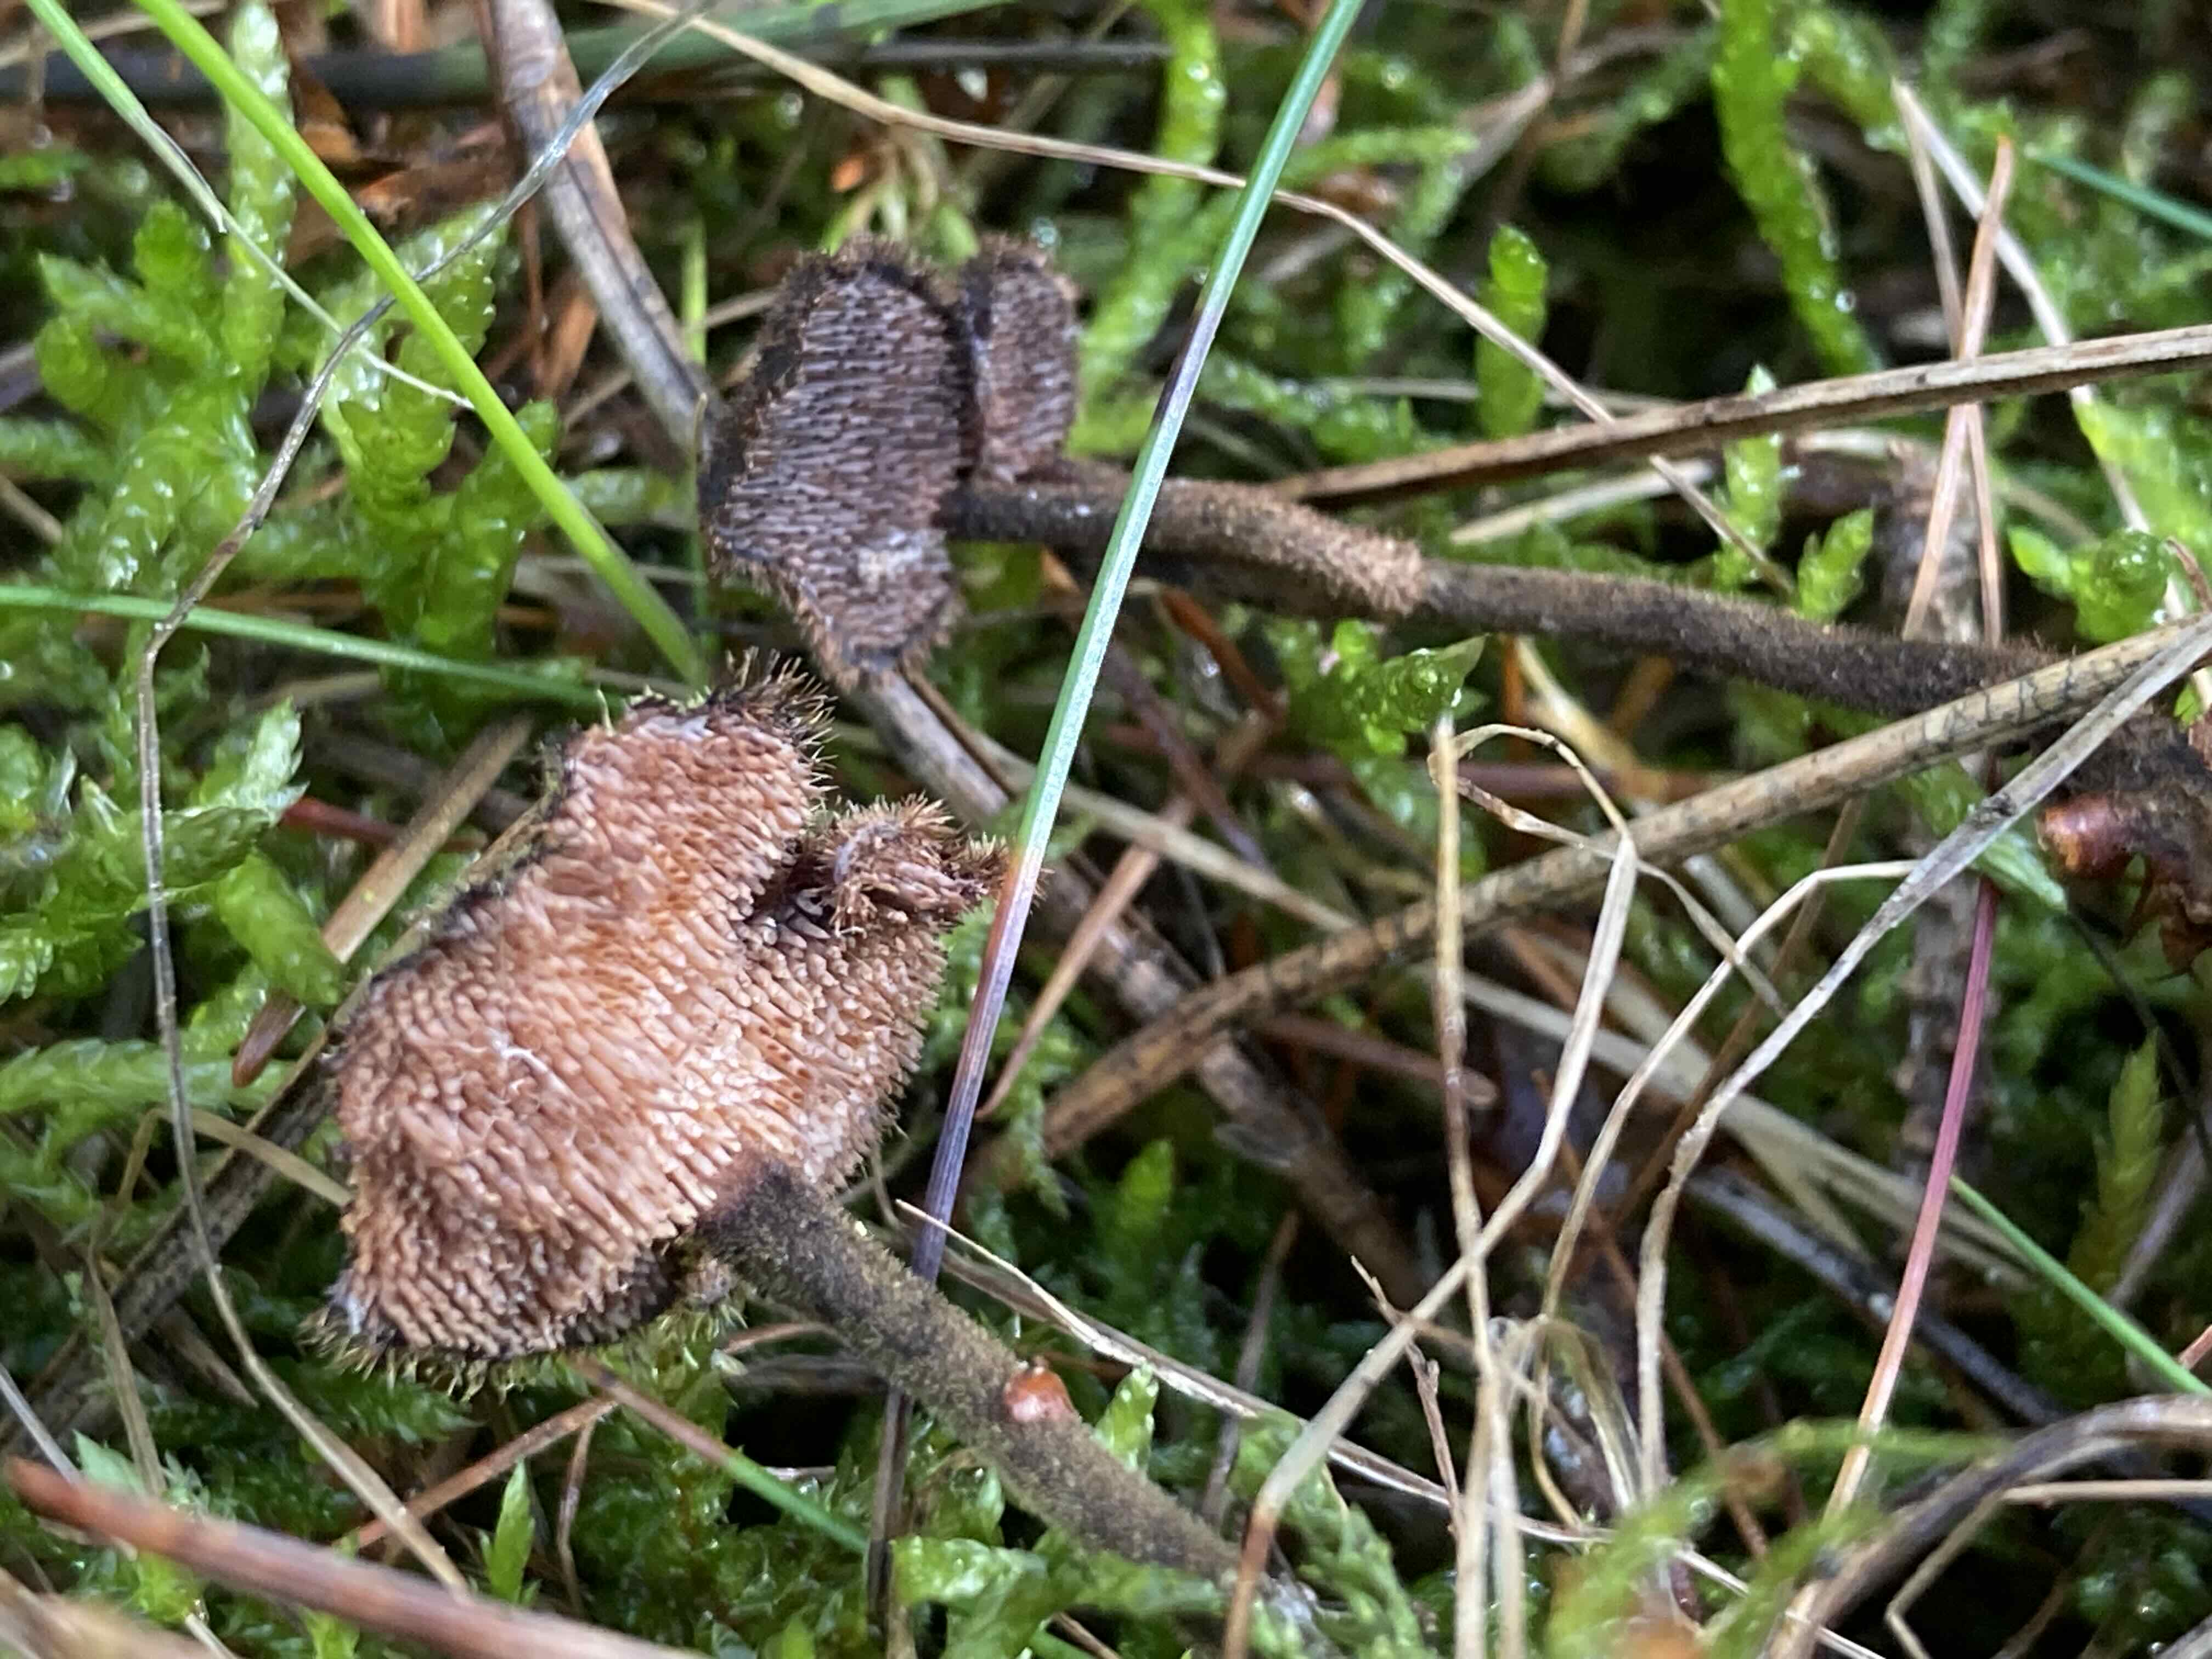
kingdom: Fungi
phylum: Basidiomycota
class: Agaricomycetes
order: Russulales
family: Auriscalpiaceae
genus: Auriscalpium
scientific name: Auriscalpium vulgare
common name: koglepigsvamp
